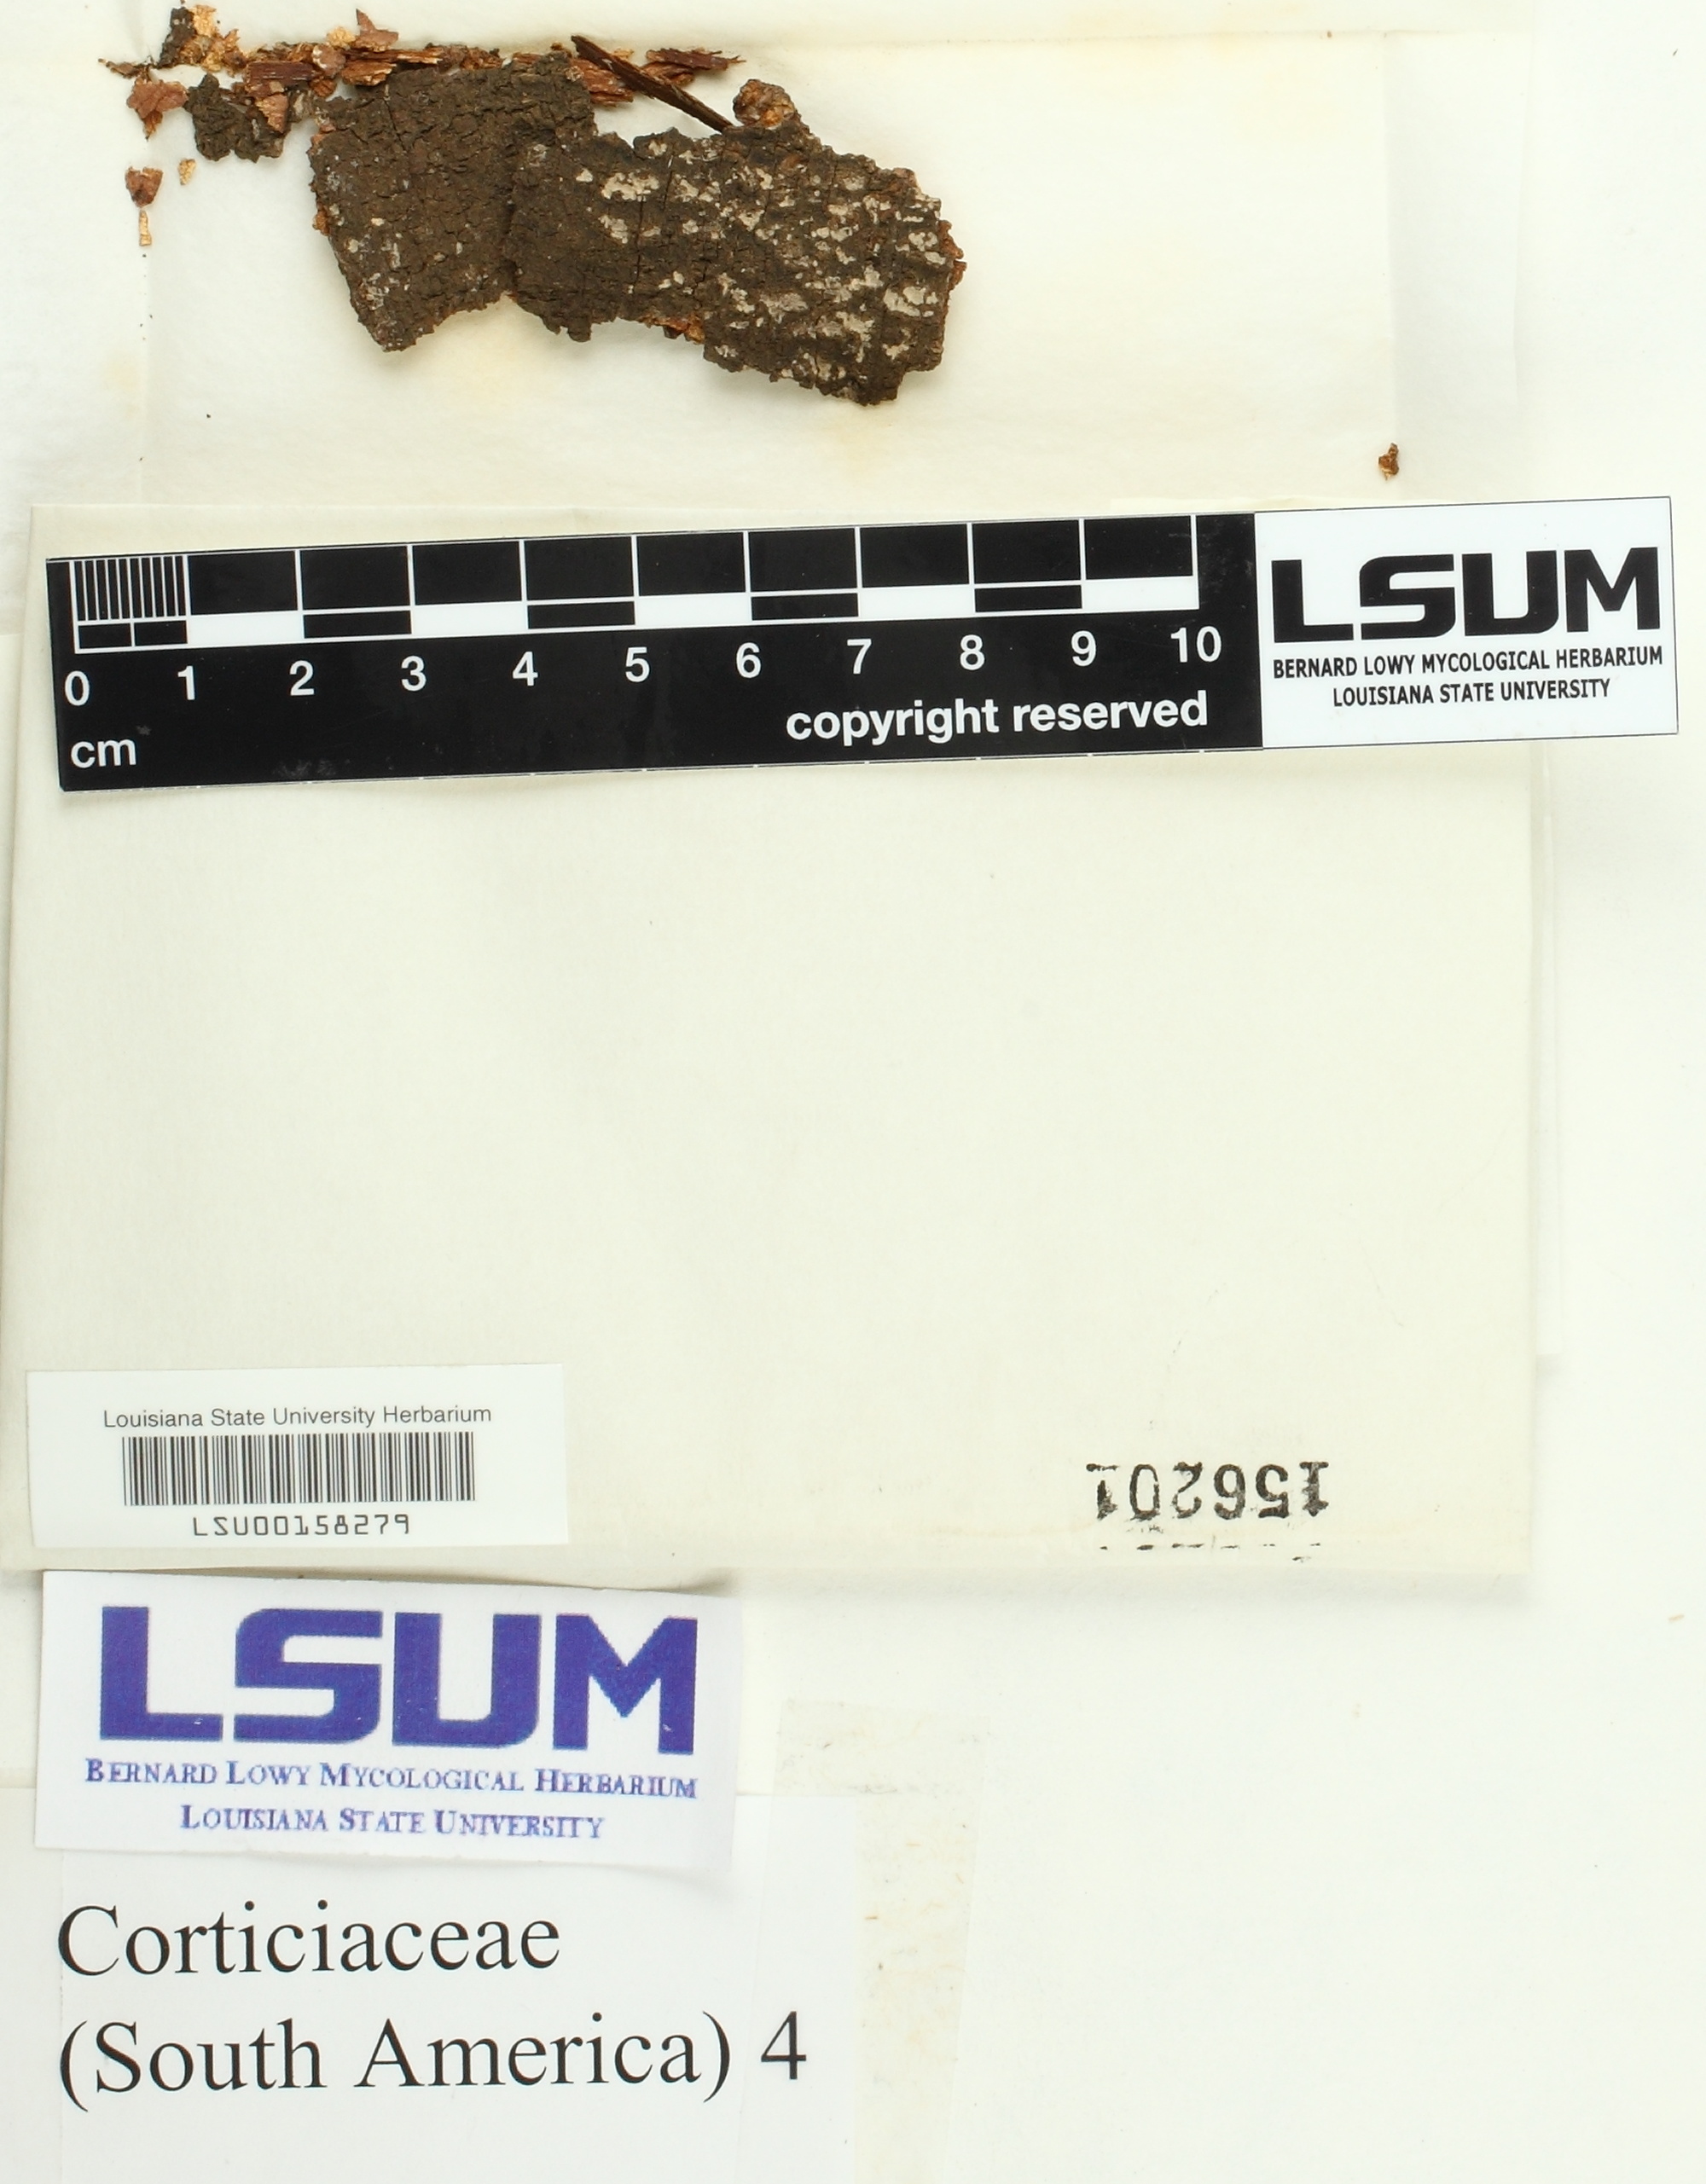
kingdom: Fungi
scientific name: Fungi
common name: Fungi
